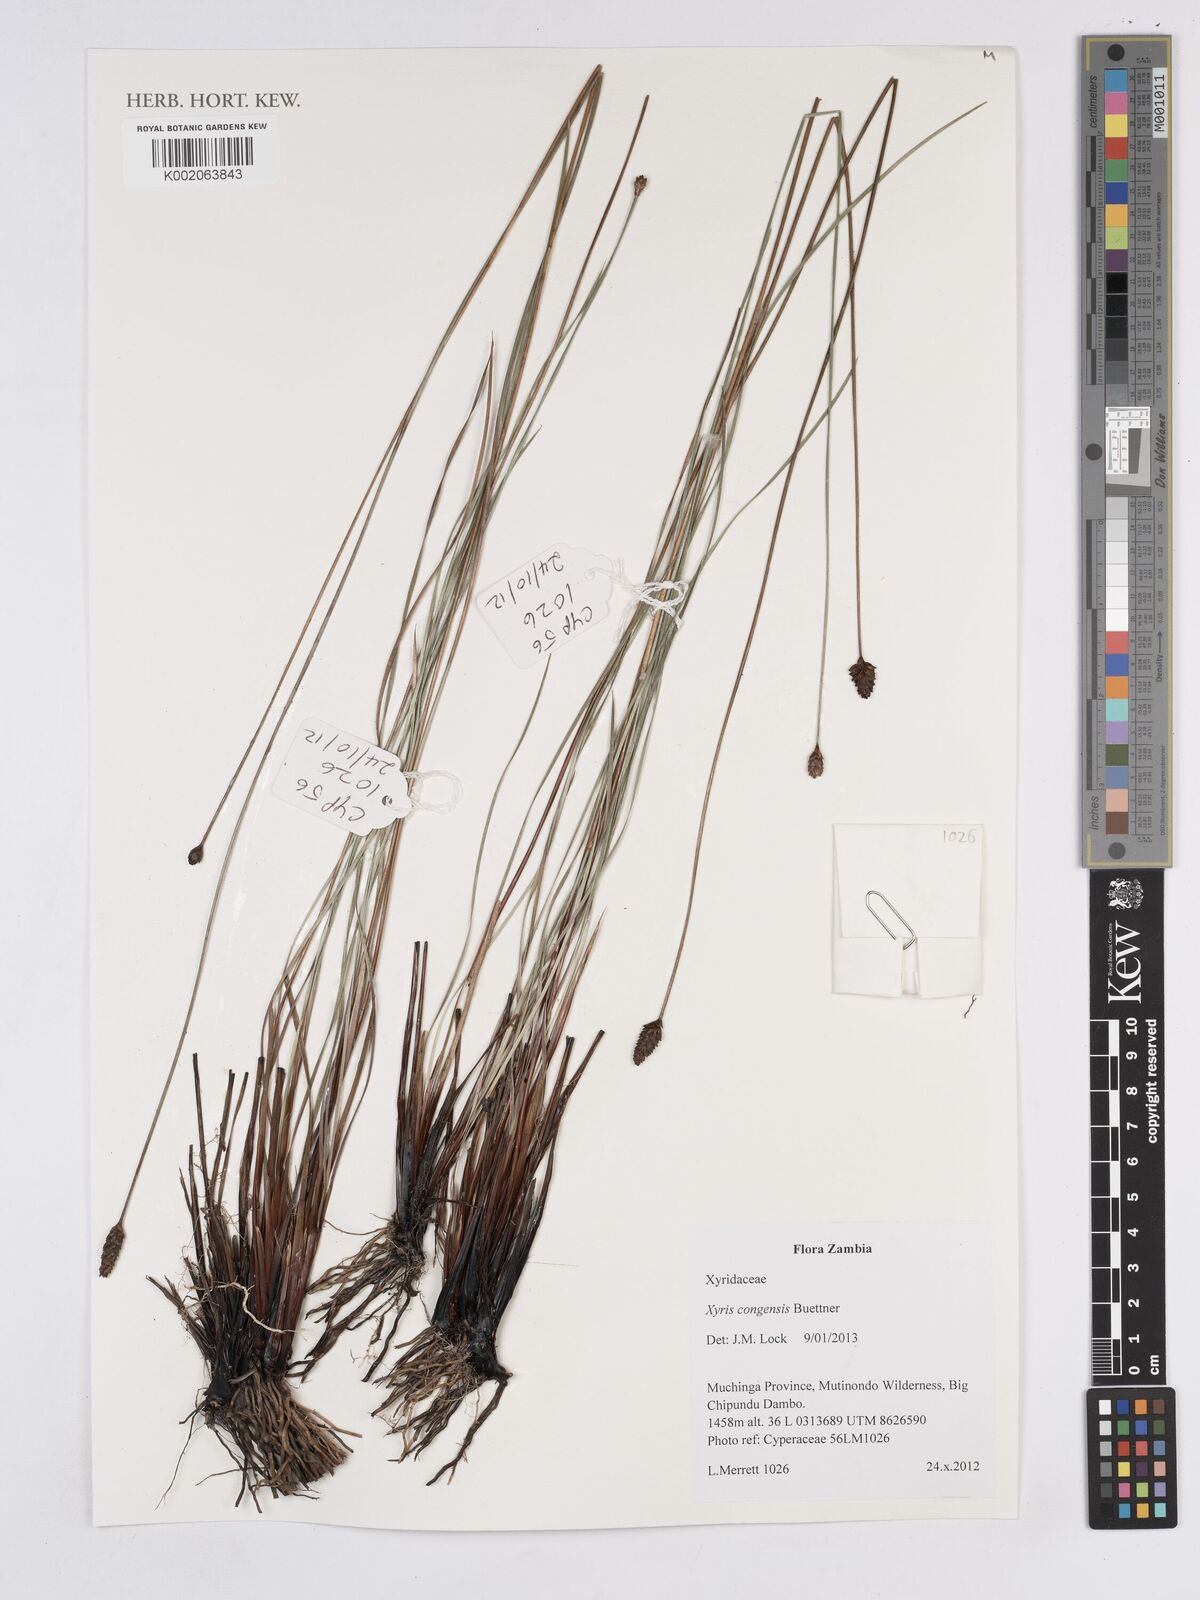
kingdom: Plantae
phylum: Tracheophyta
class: Liliopsida
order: Poales
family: Xyridaceae
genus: Xyris
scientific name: Xyris congensis
